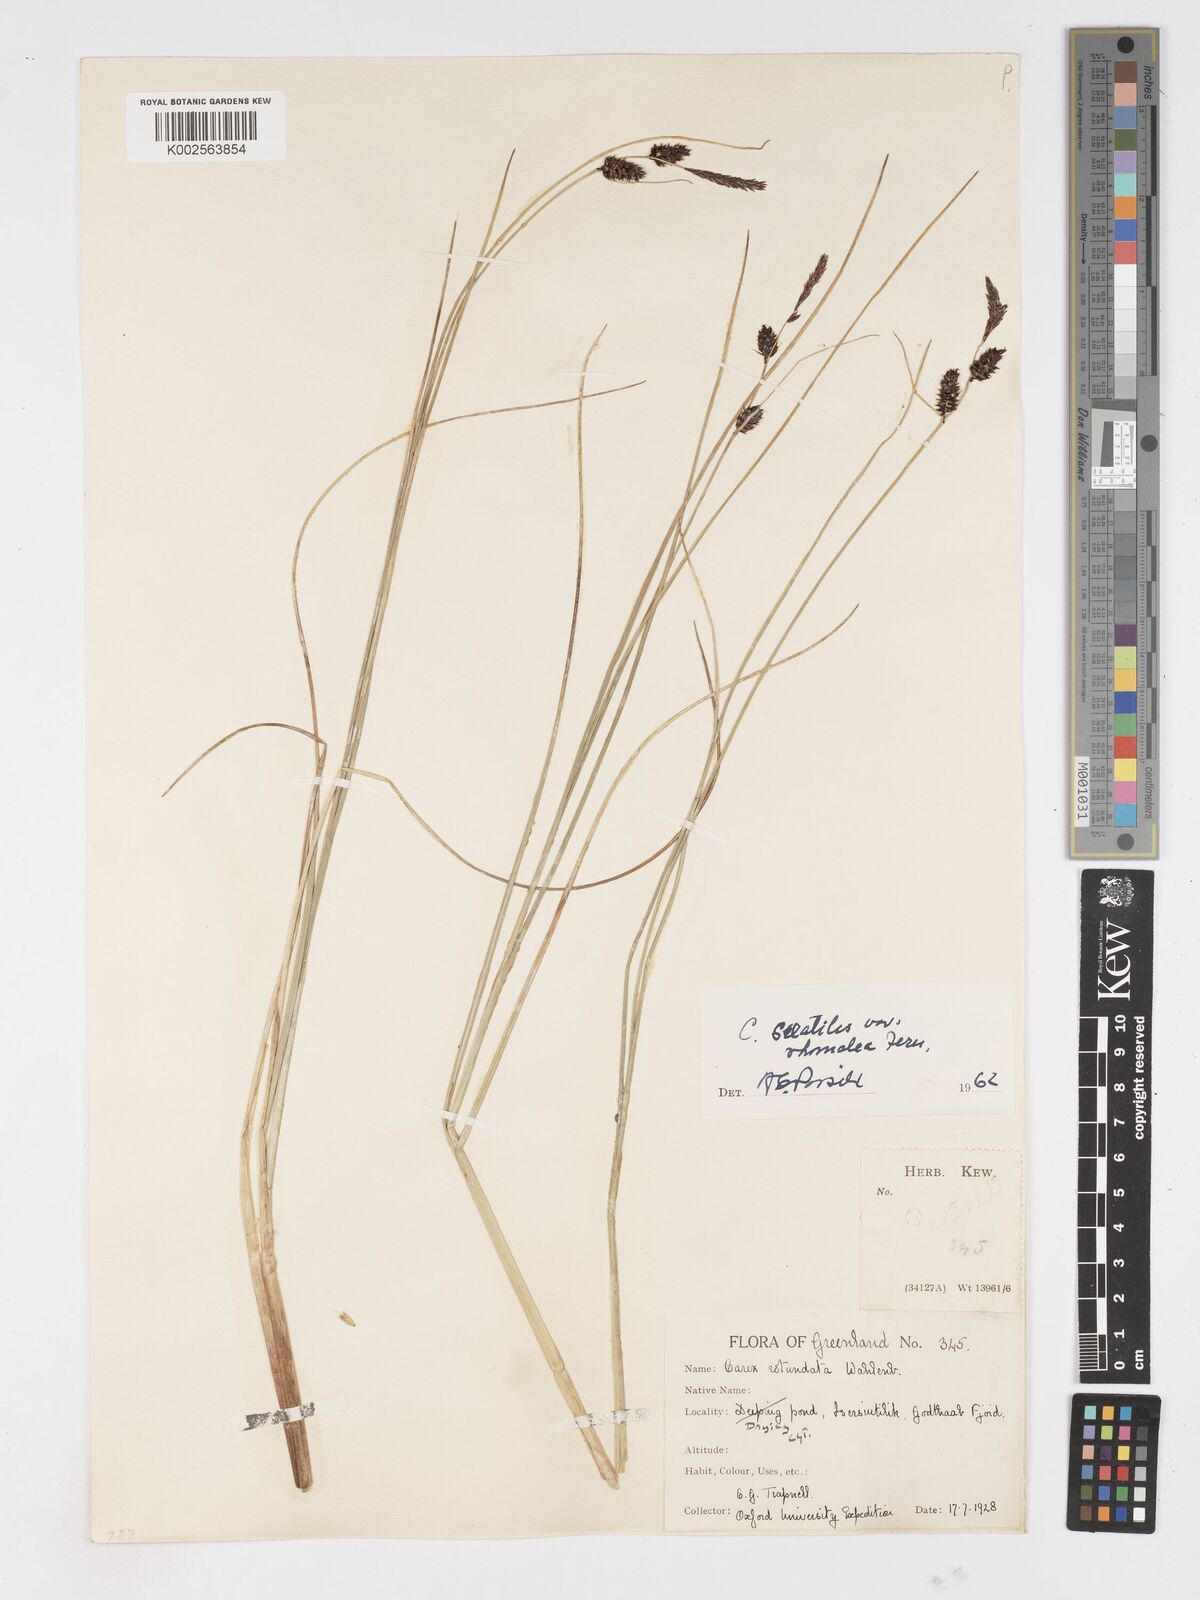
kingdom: Plantae
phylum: Tracheophyta
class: Liliopsida
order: Poales
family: Cyperaceae
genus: Carex
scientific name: Carex rotundata
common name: Round-fruited sedge
